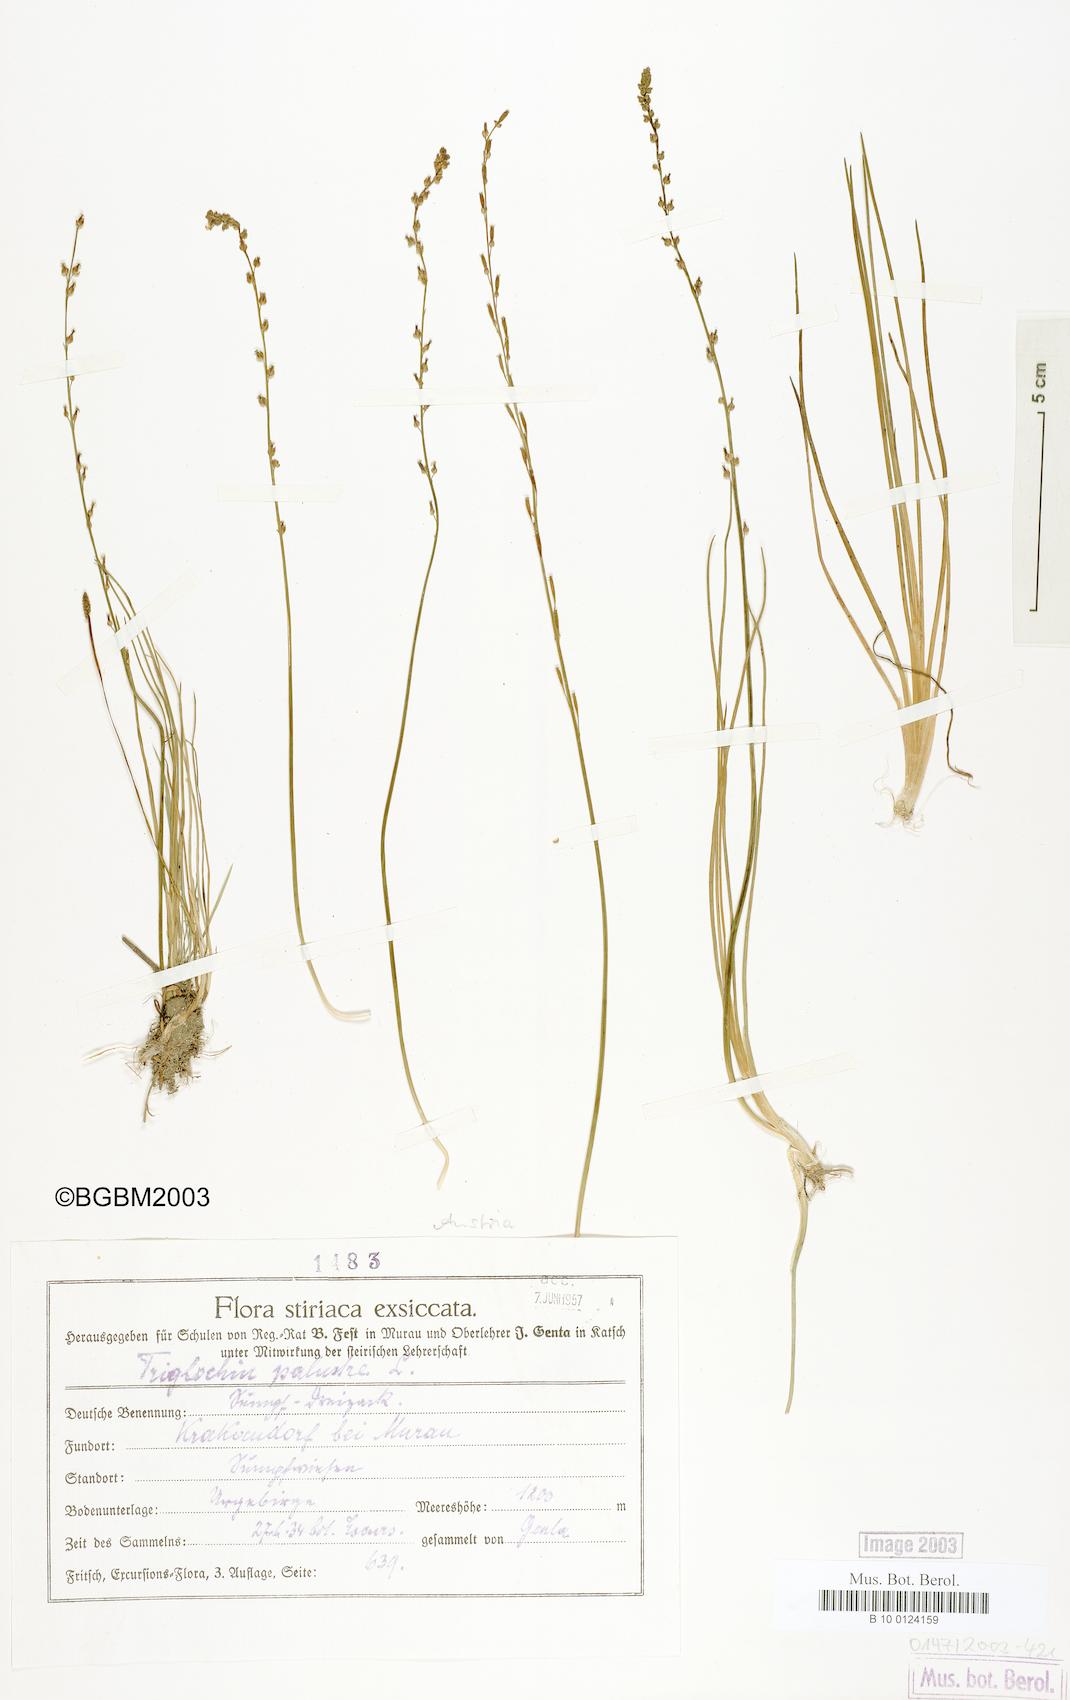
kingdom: Plantae
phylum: Tracheophyta
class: Liliopsida
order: Alismatales
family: Juncaginaceae
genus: Triglochin
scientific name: Triglochin palustris
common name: Marsh arrowgrass
